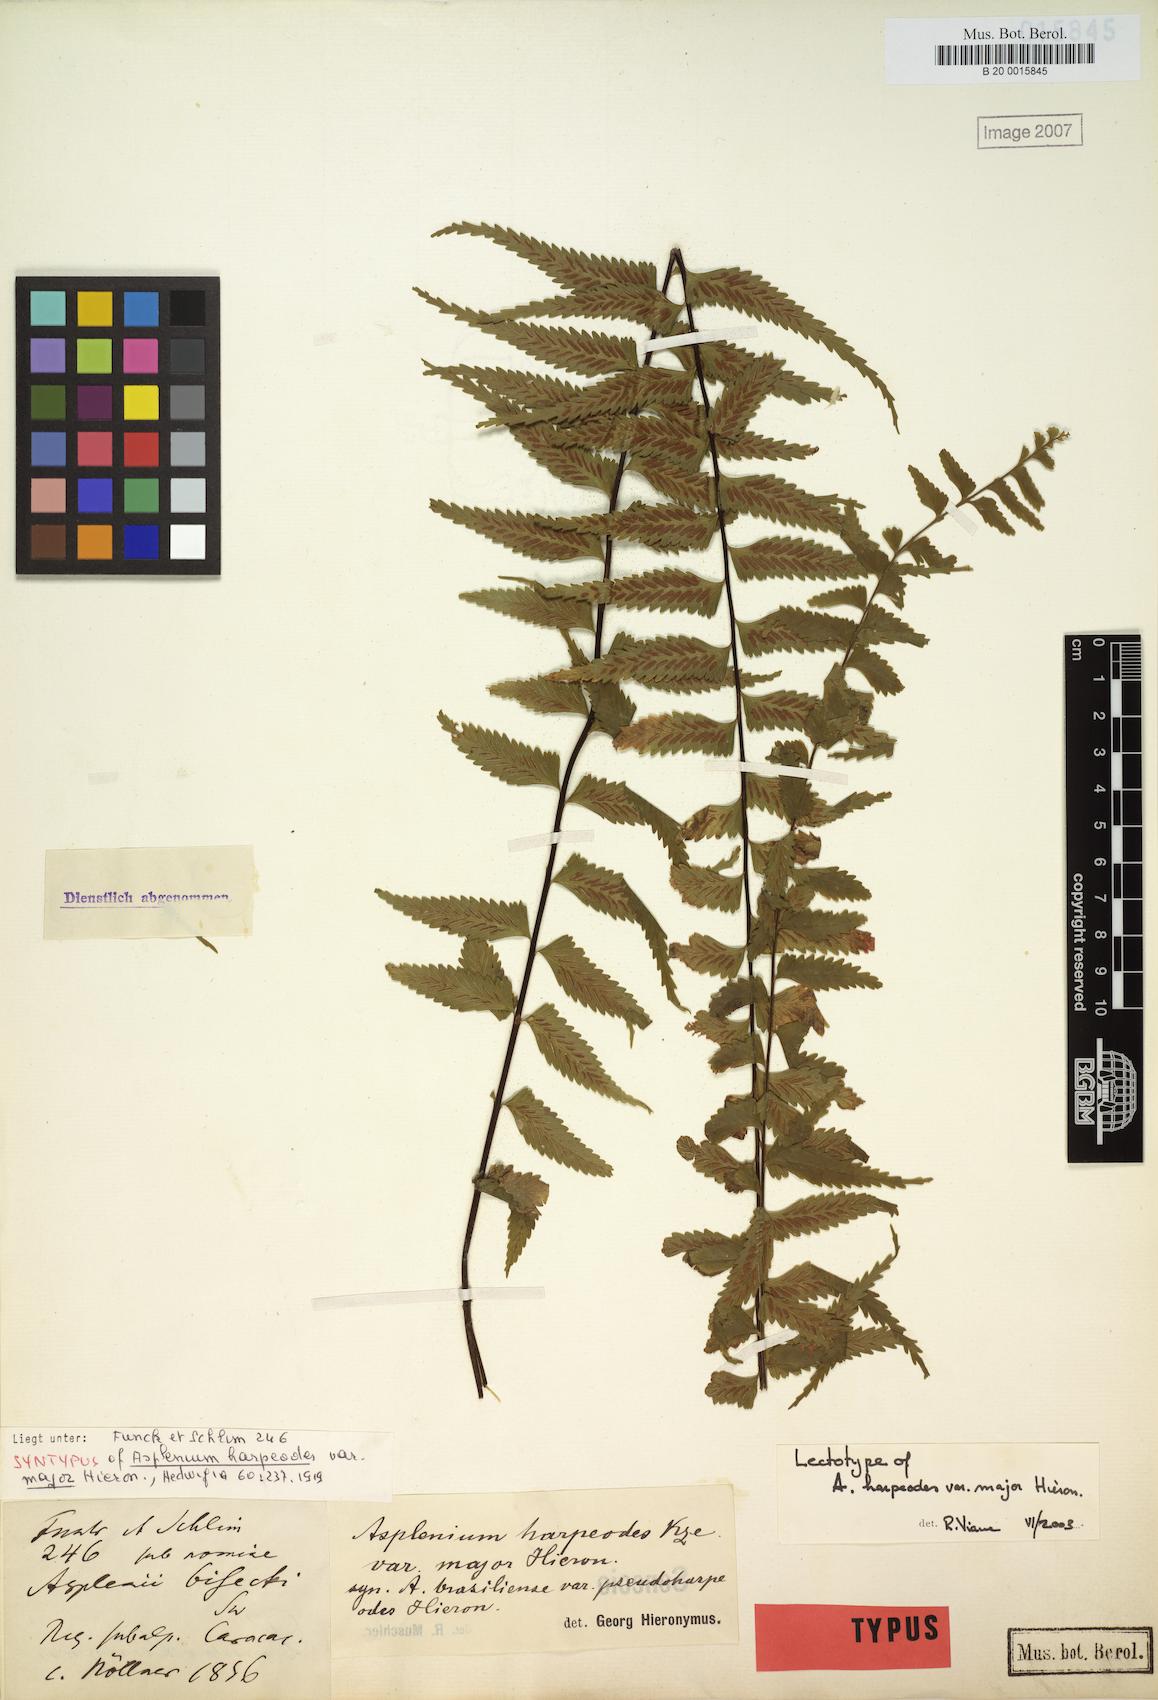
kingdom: Plantae
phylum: Tracheophyta
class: Polypodiopsida
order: Polypodiales
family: Aspleniaceae
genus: Asplenium
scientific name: Asplenium harpeodes
